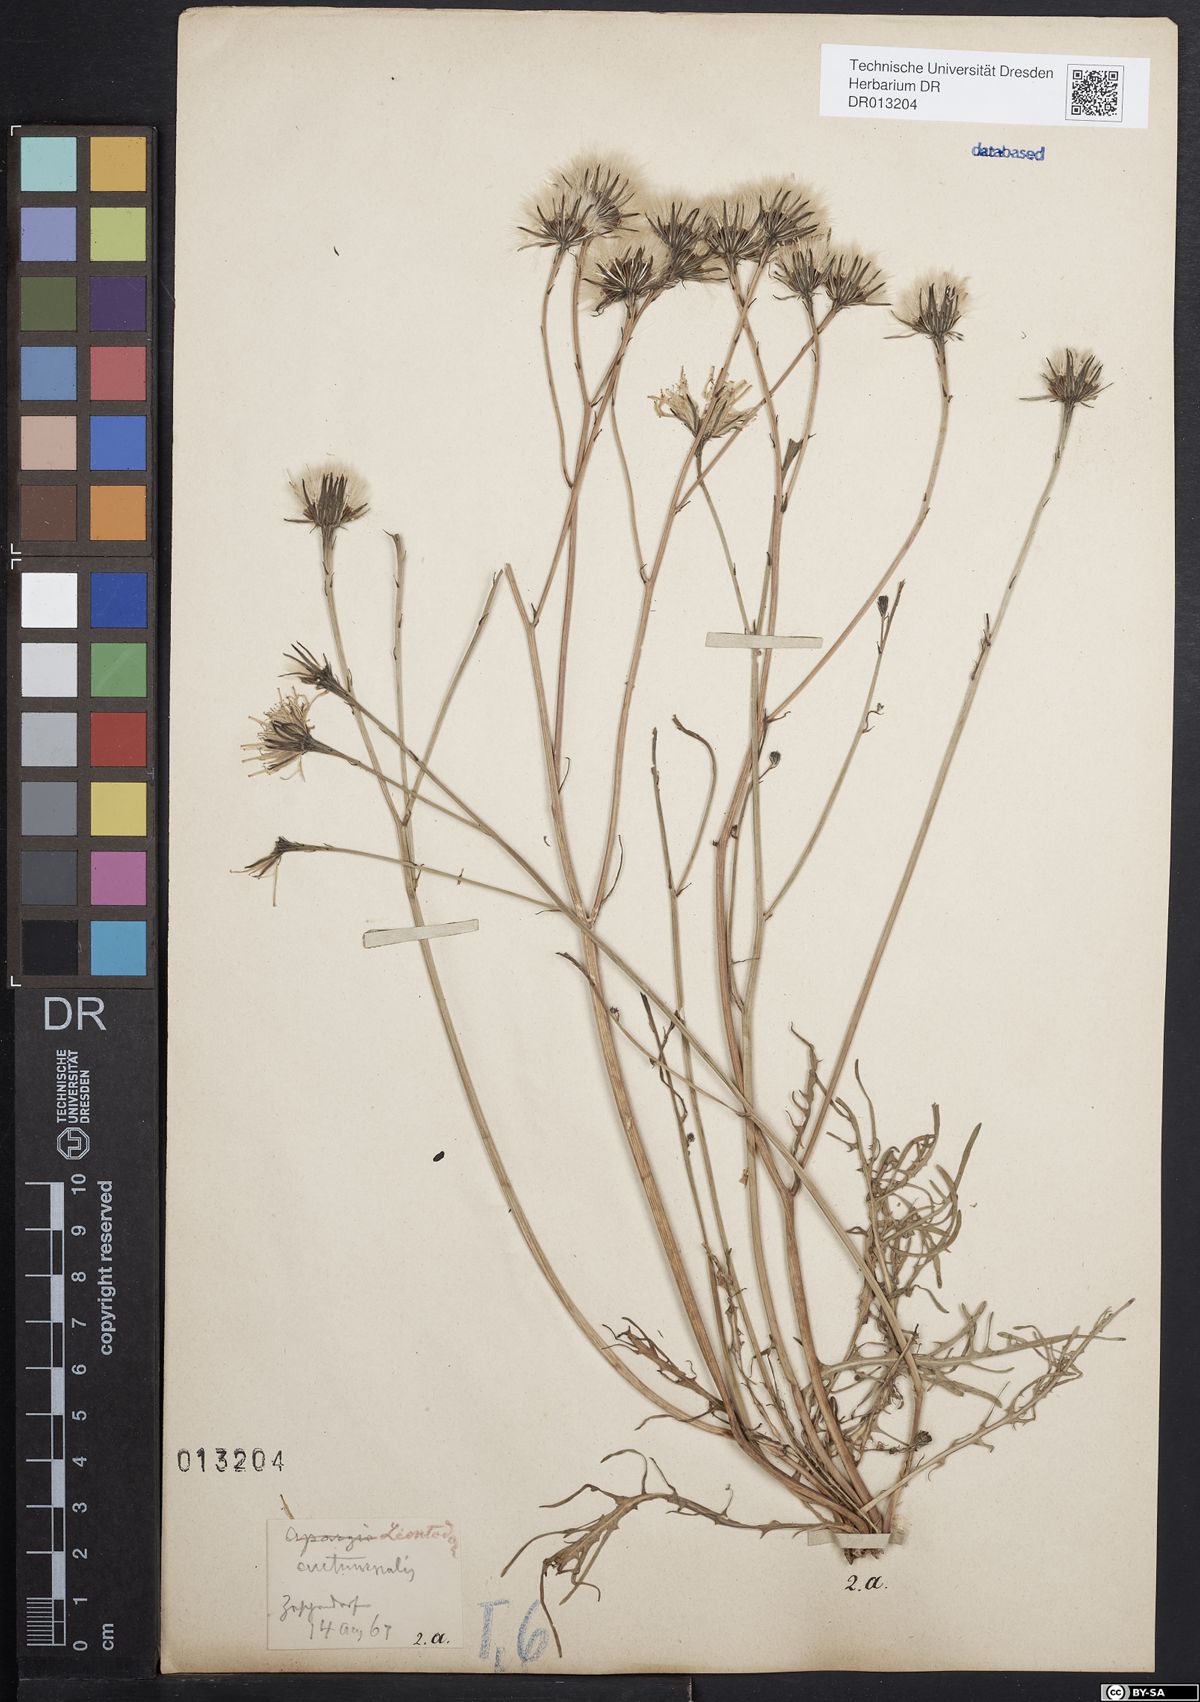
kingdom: Plantae
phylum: Tracheophyta
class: Magnoliopsida
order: Asterales
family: Asteraceae
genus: Scorzoneroides
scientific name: Scorzoneroides autumnalis
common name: Autumn hawkbit
